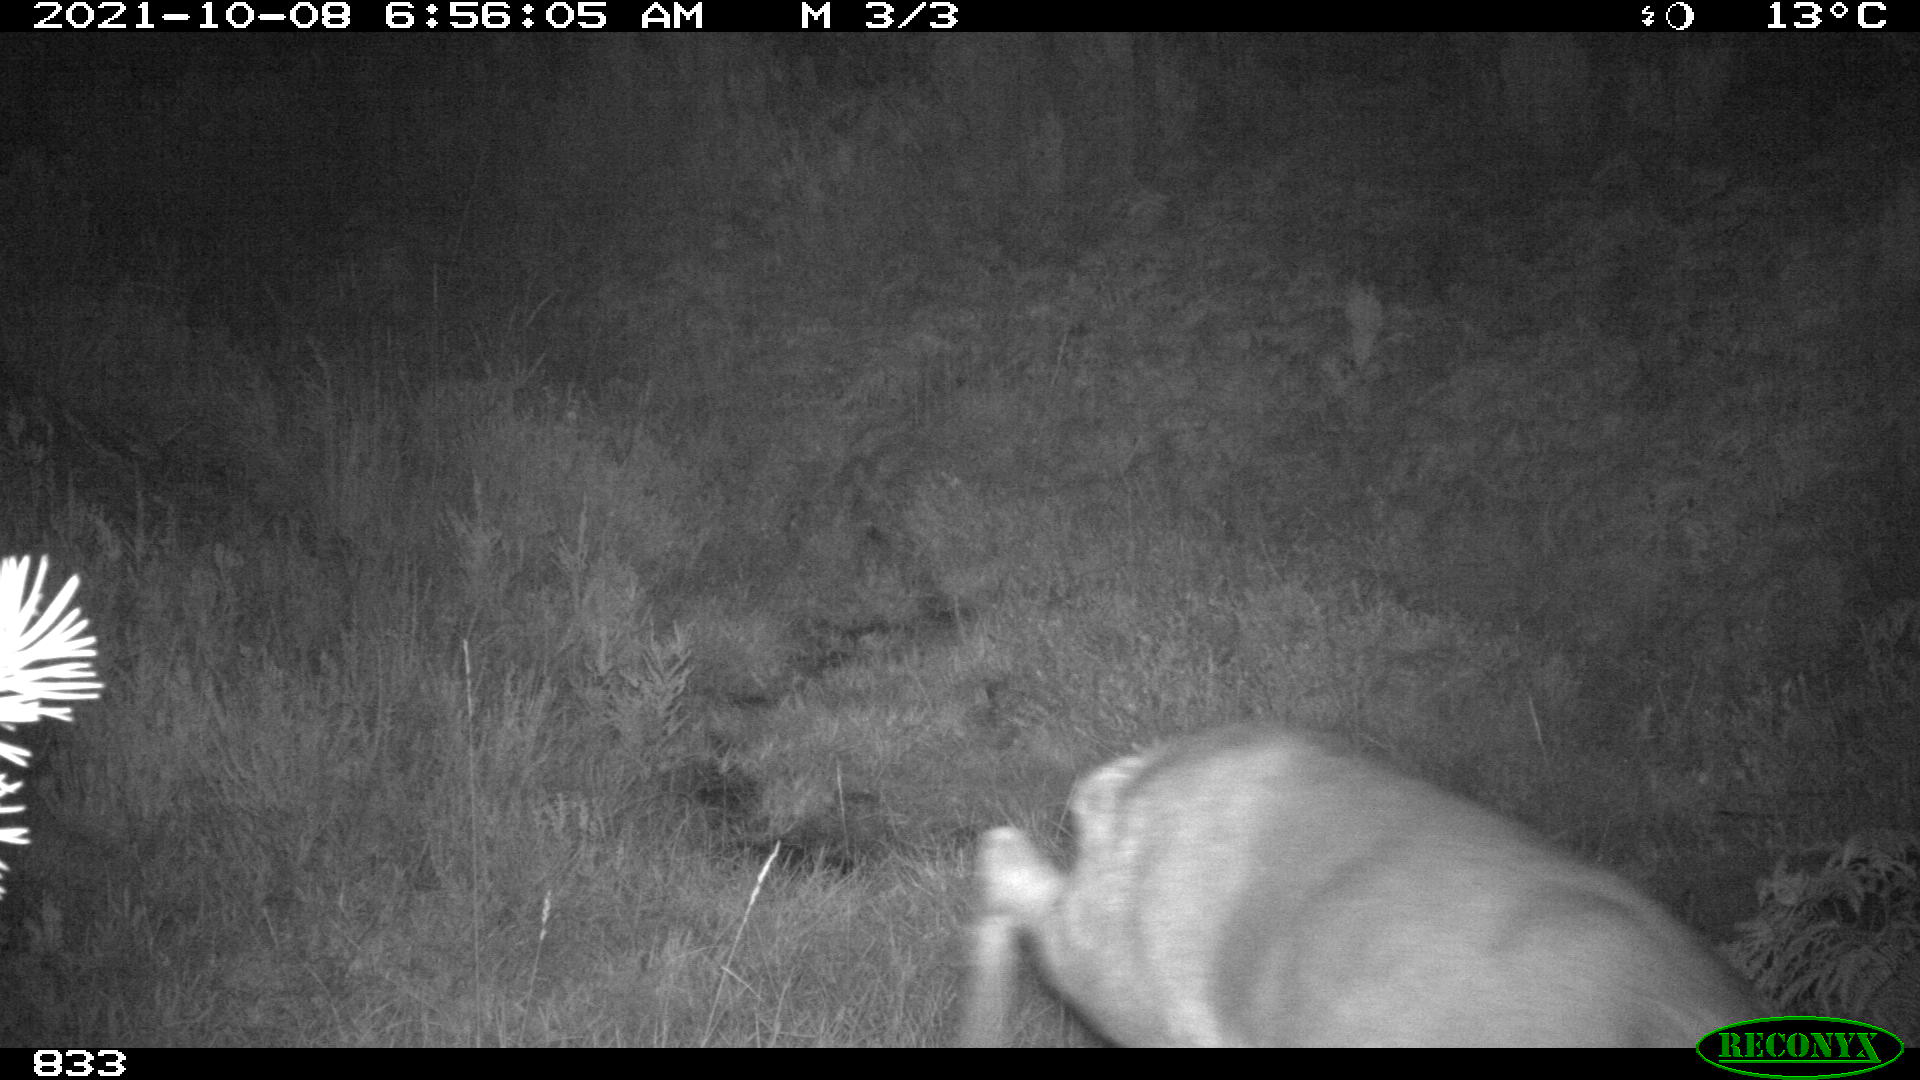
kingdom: Animalia
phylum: Chordata
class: Mammalia
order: Artiodactyla
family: Cervidae
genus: Capreolus
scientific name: Capreolus capreolus
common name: Western roe deer
